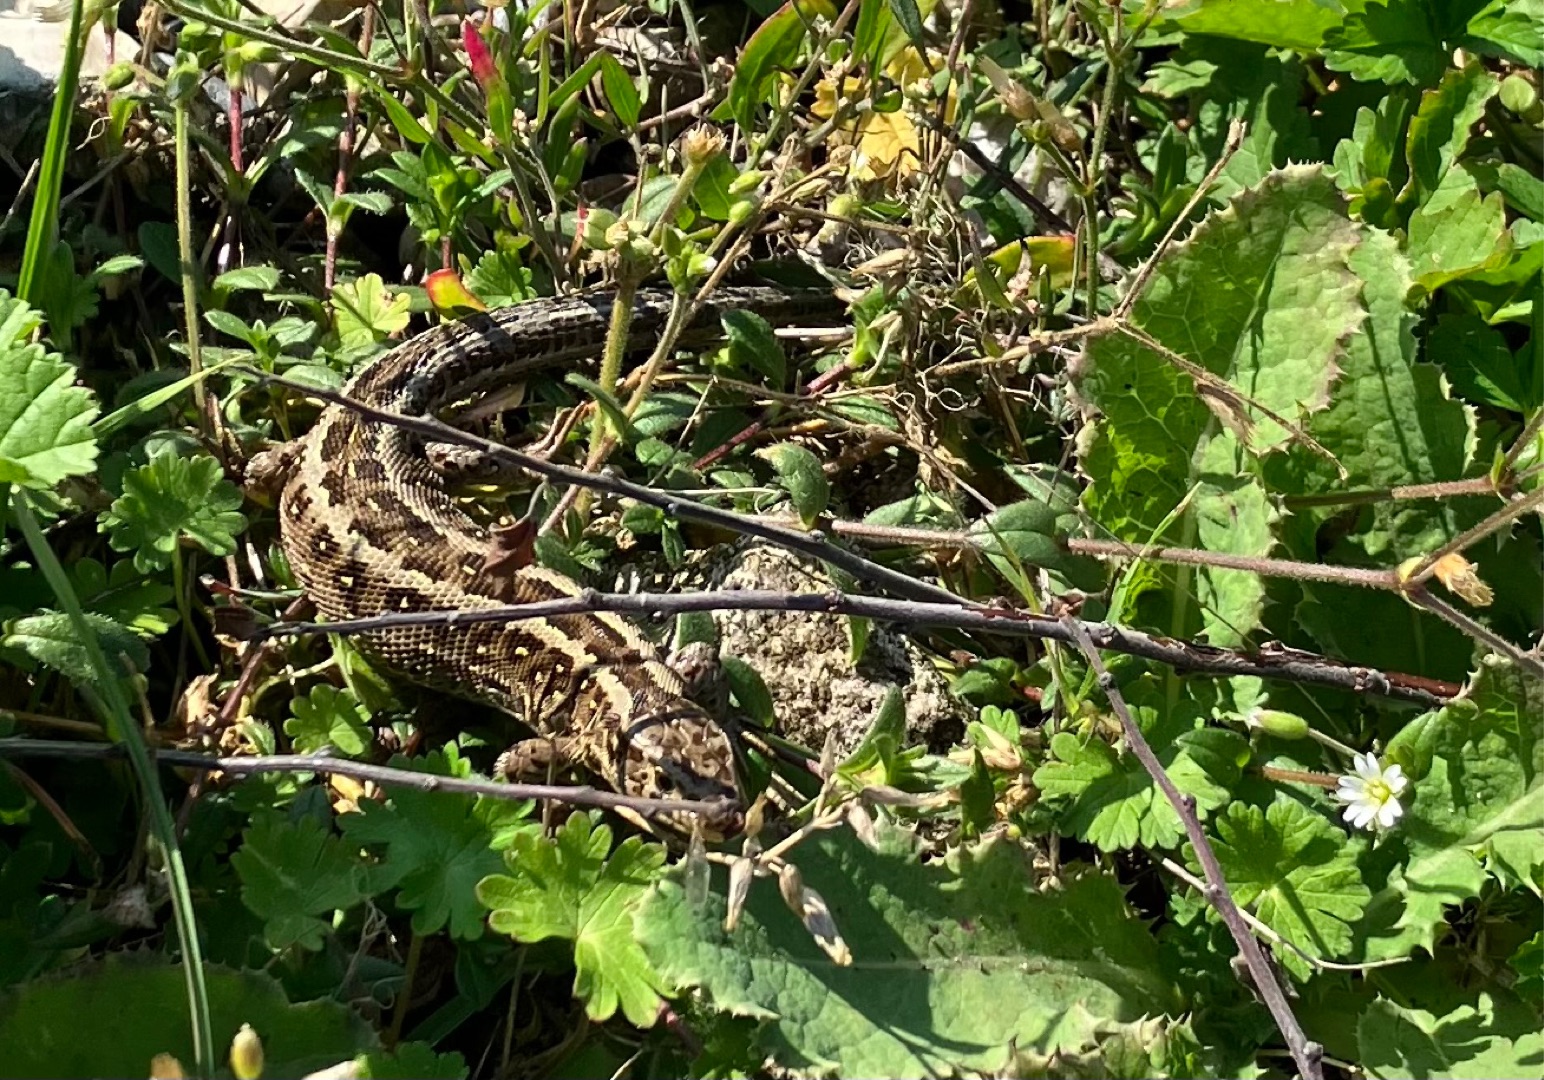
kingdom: Animalia
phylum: Chordata
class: Squamata
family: Lacertidae
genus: Lacerta
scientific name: Lacerta agilis
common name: Markfirben
